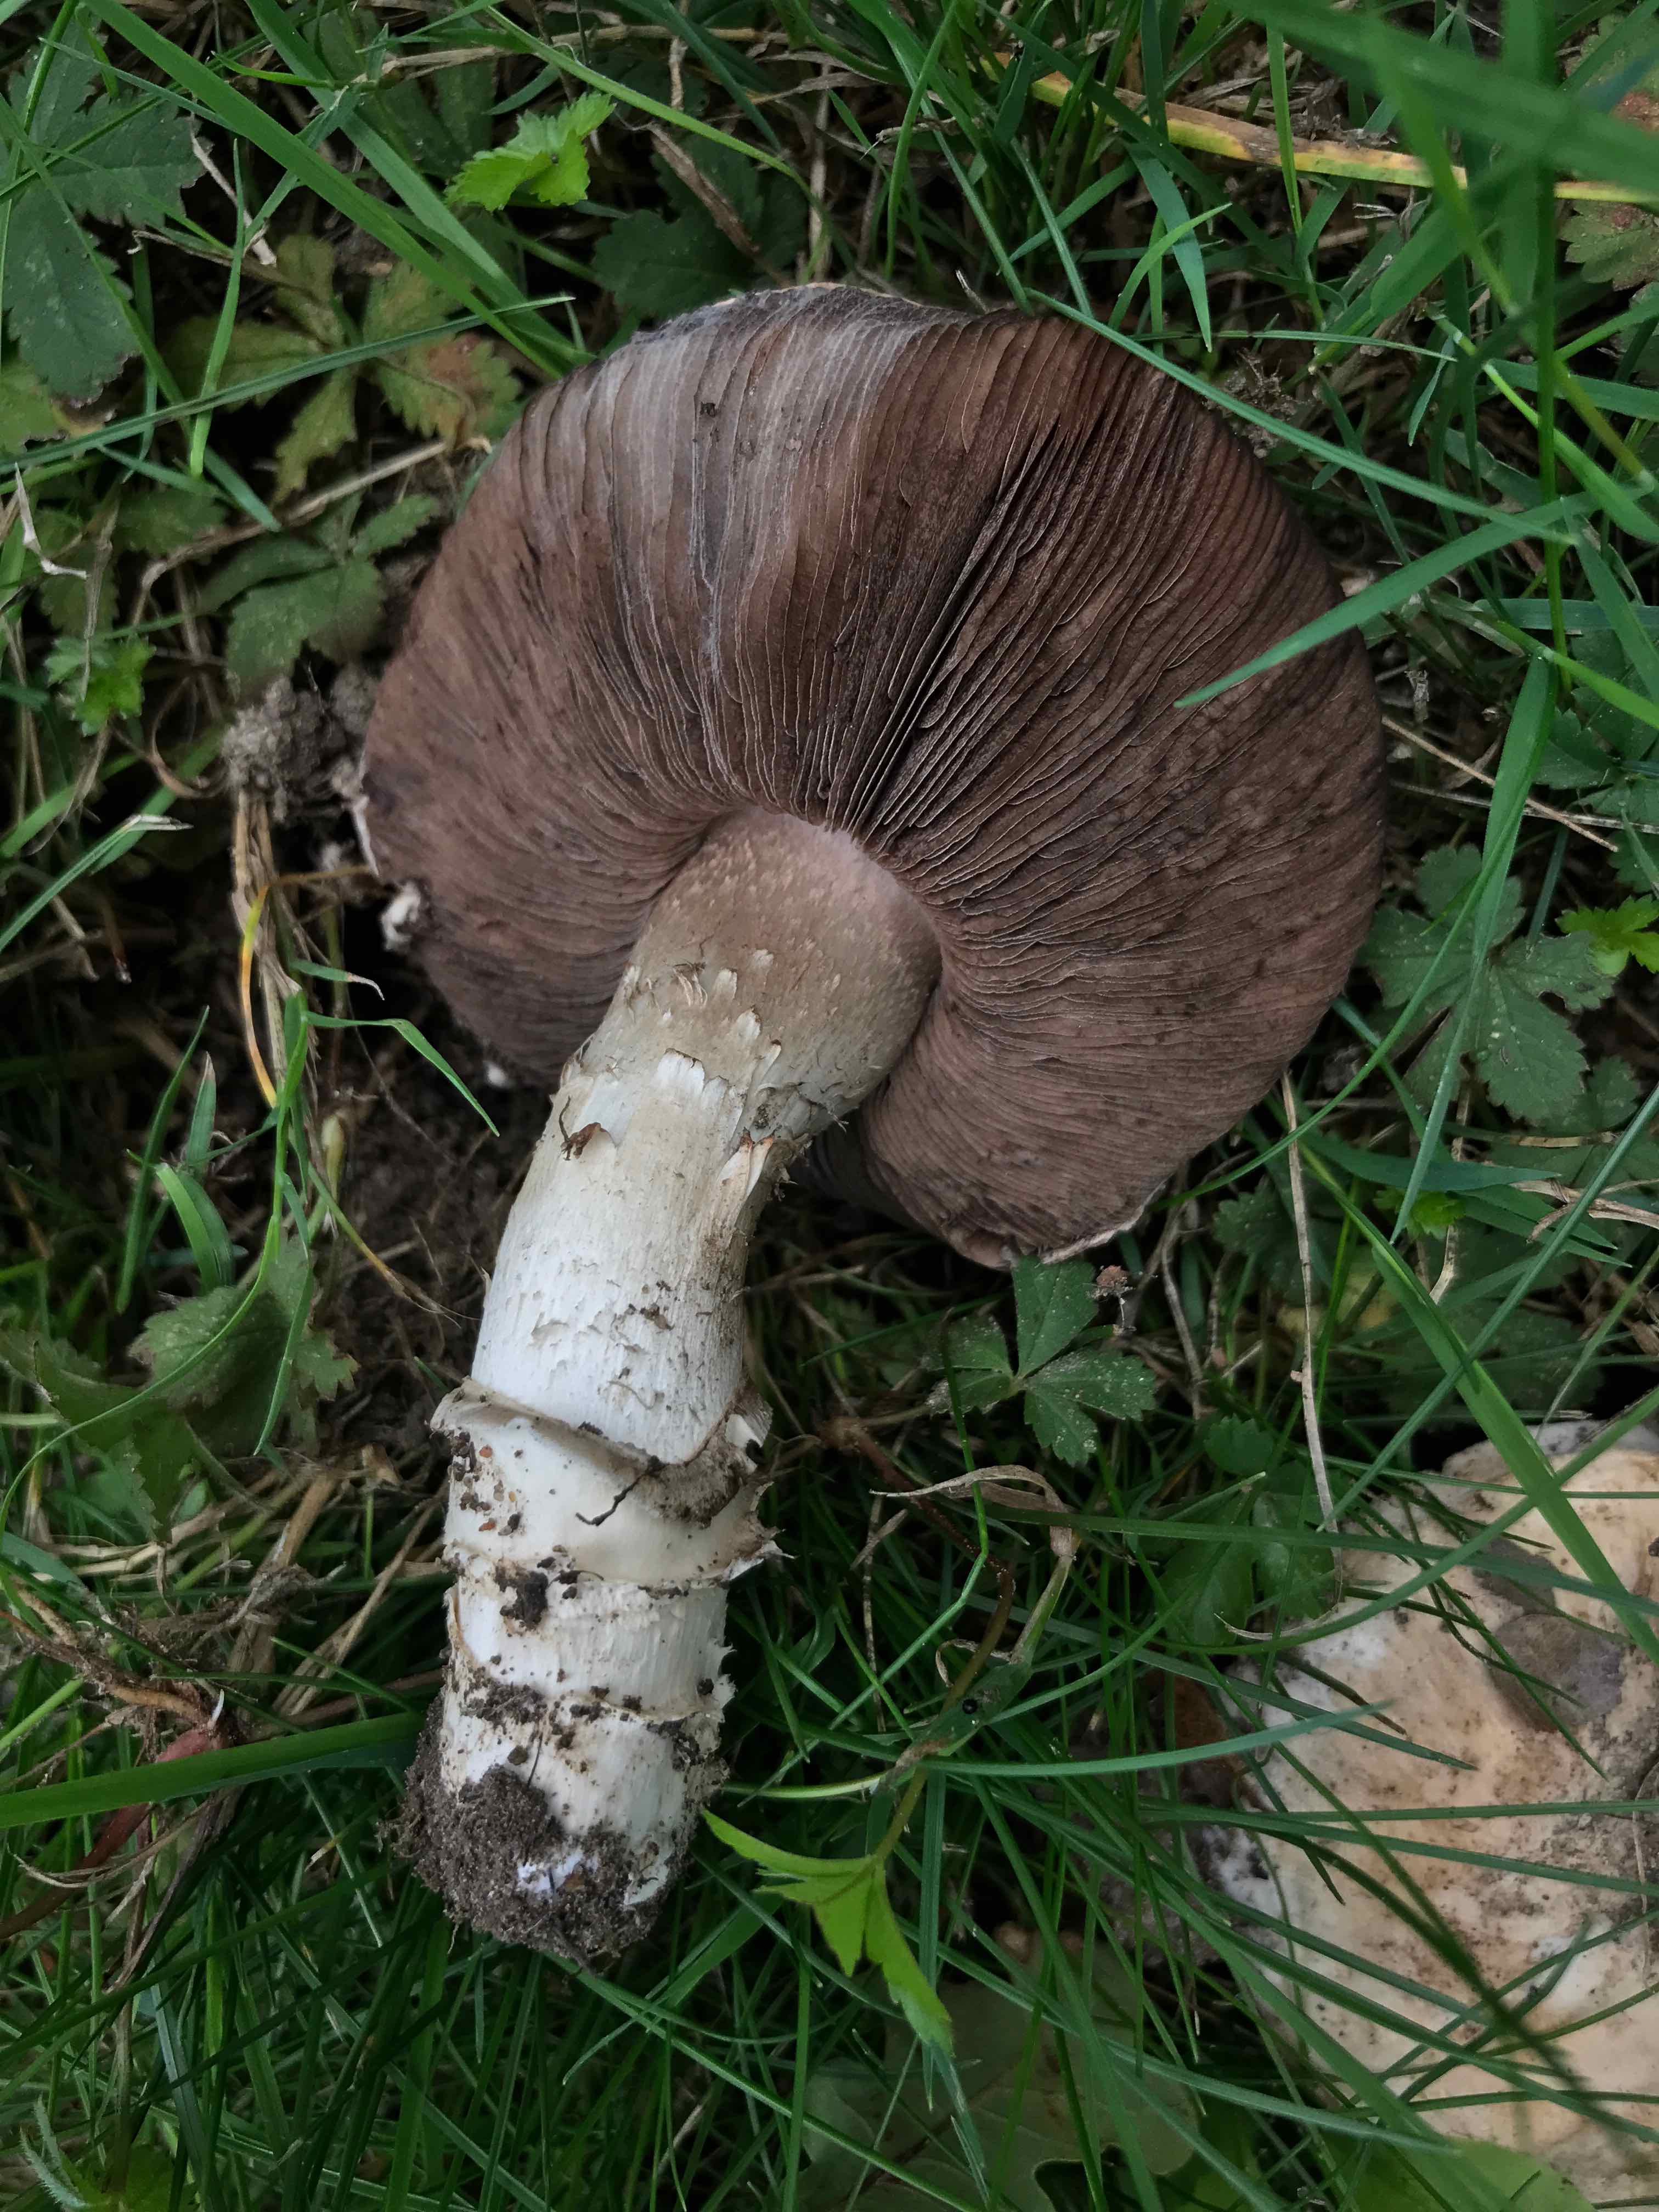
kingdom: Fungi
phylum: Basidiomycota
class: Agaricomycetes
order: Agaricales
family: Agaricaceae
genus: Agaricus
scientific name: Agaricus bitorquis
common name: vej-champignon
